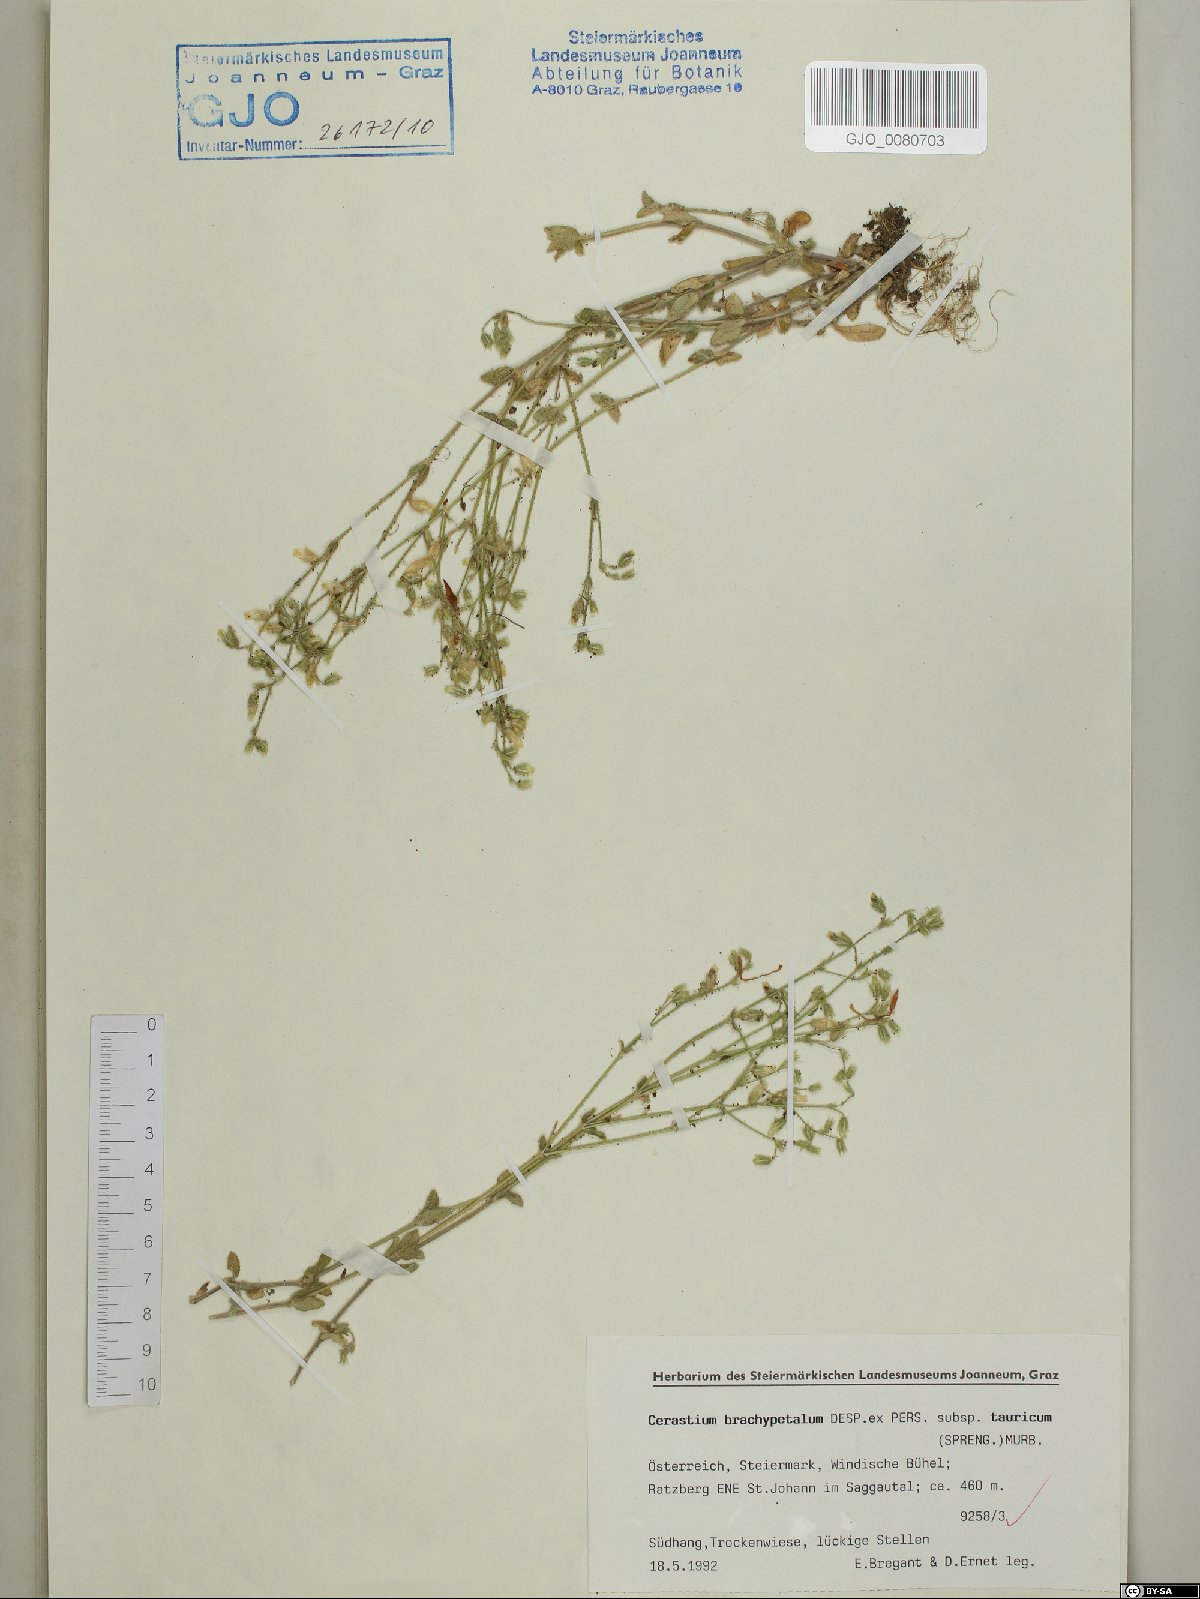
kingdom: Plantae
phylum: Tracheophyta
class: Magnoliopsida
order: Caryophyllales
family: Caryophyllaceae
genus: Cerastium
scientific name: Cerastium brachypetalum
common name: Grey mouse-ear
